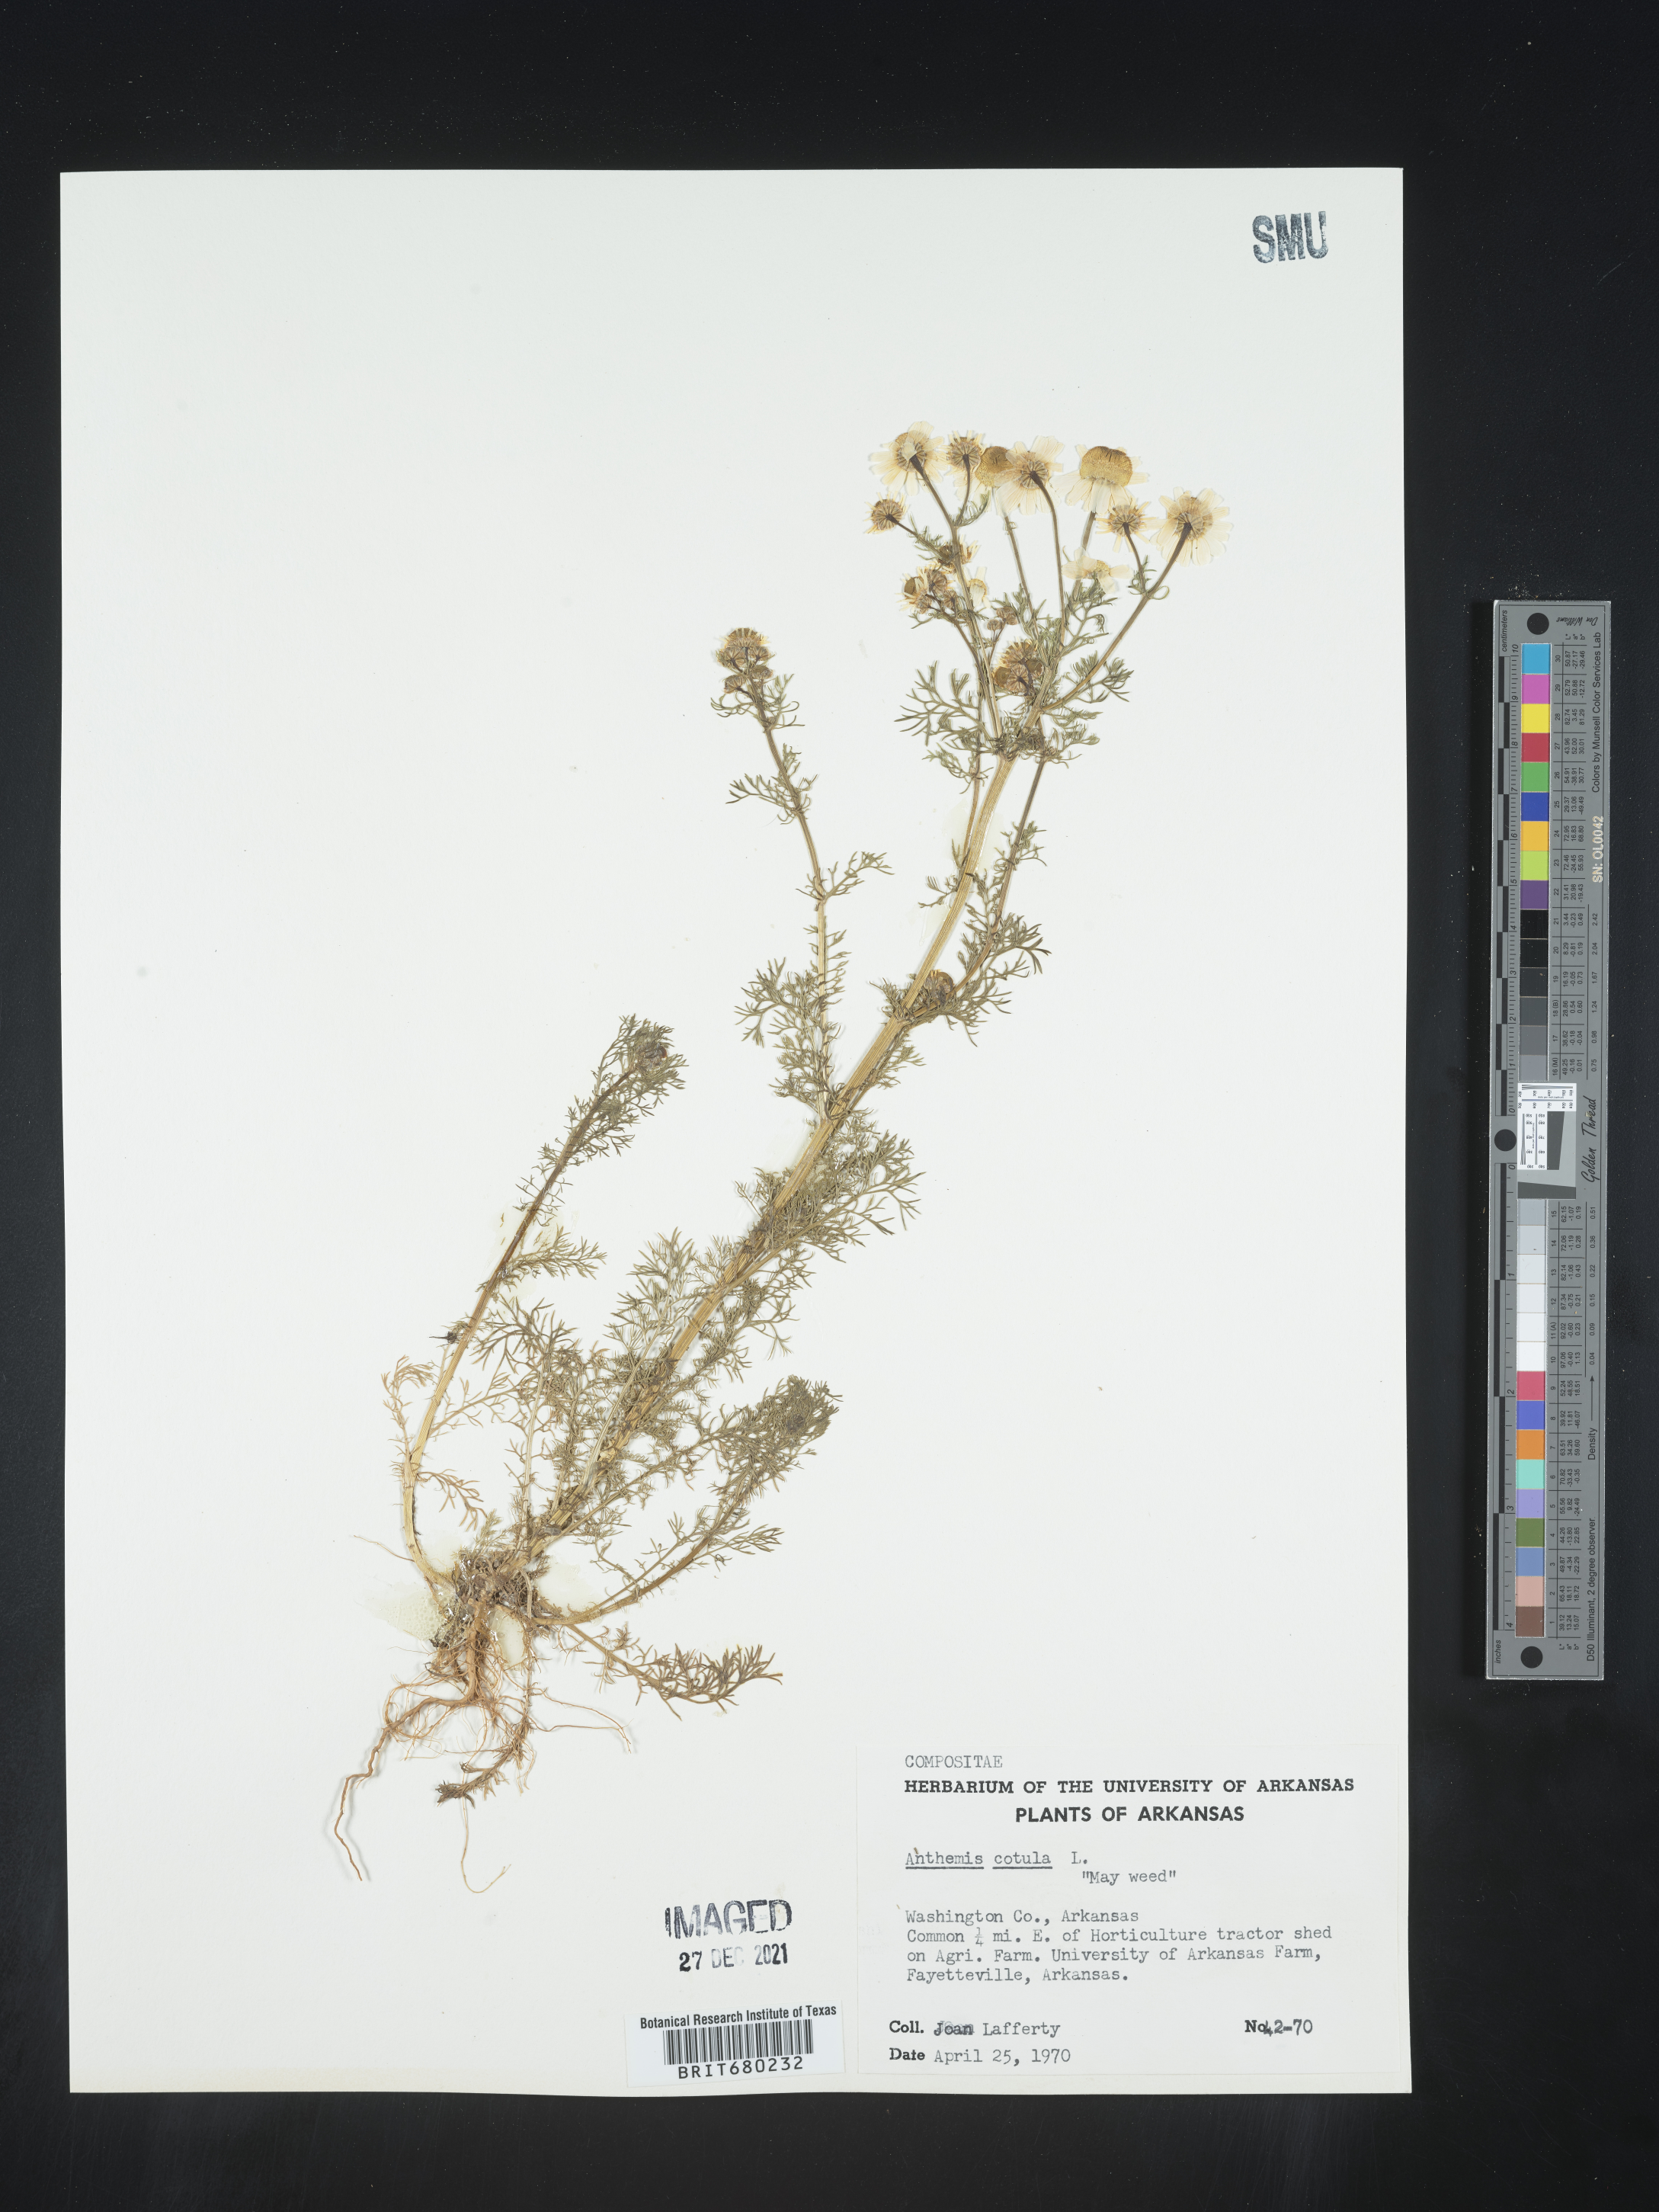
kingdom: Plantae
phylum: Tracheophyta
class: Magnoliopsida
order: Asterales
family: Asteraceae
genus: Anthemis
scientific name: Anthemis cotula
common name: Stinking chamomile
